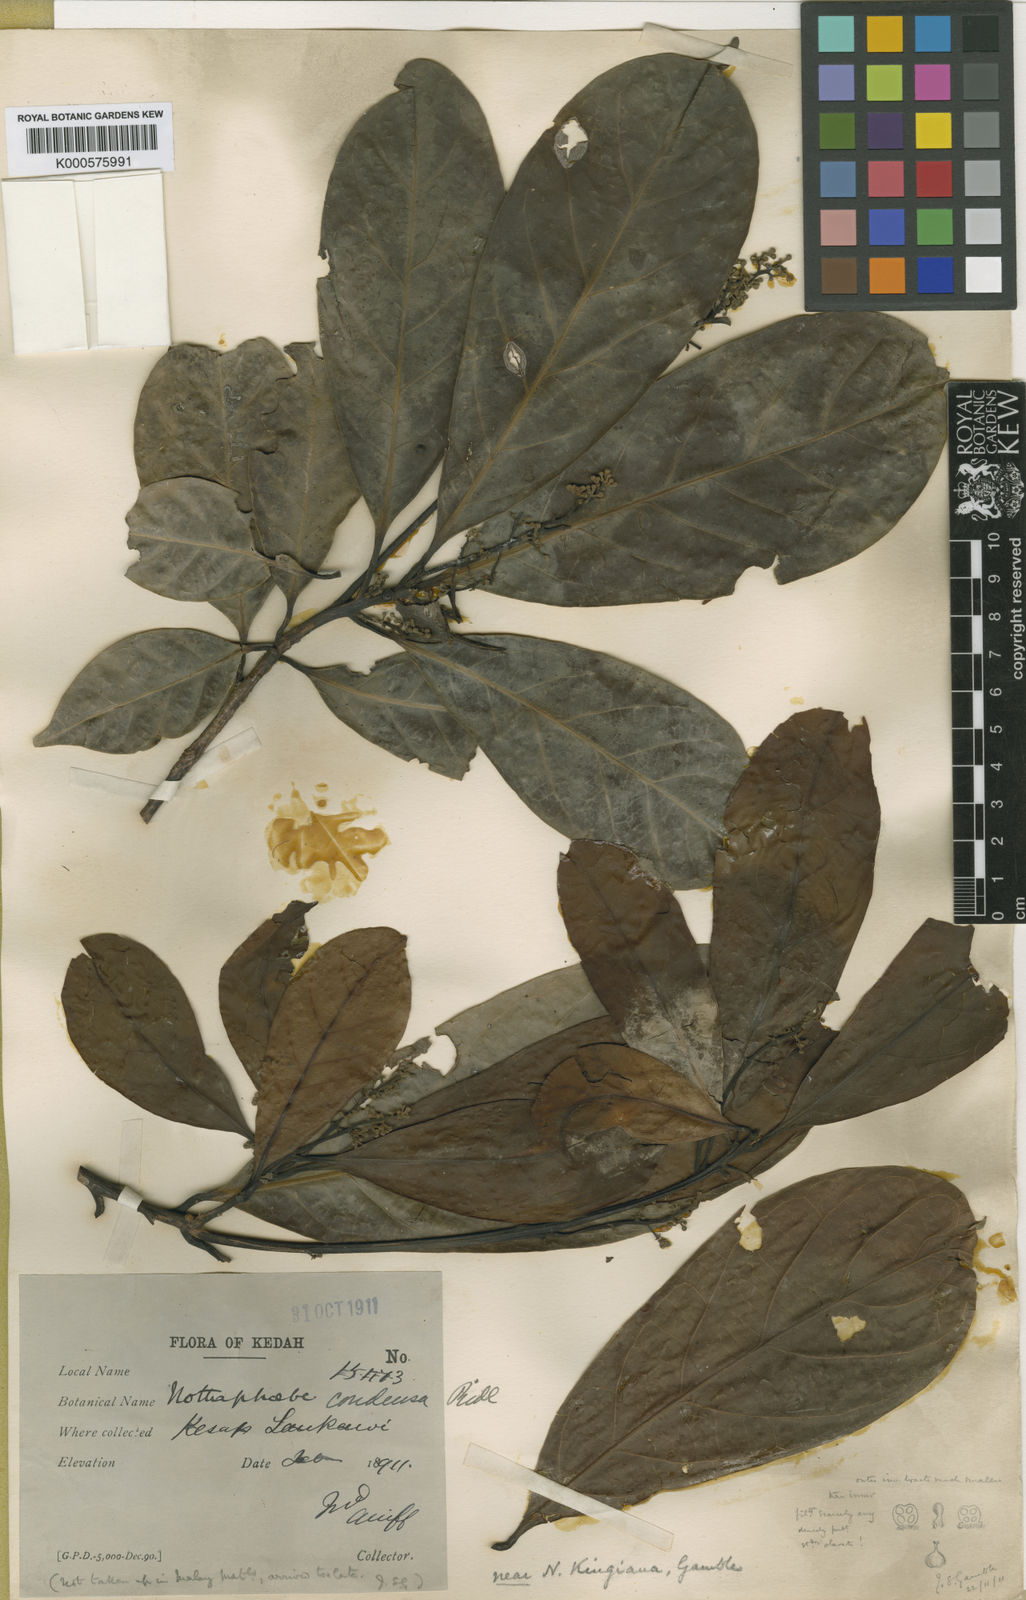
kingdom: Plantae
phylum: Tracheophyta
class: Magnoliopsida
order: Laurales
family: Lauraceae
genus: Nothaphoebe
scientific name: Nothaphoebe condensa
